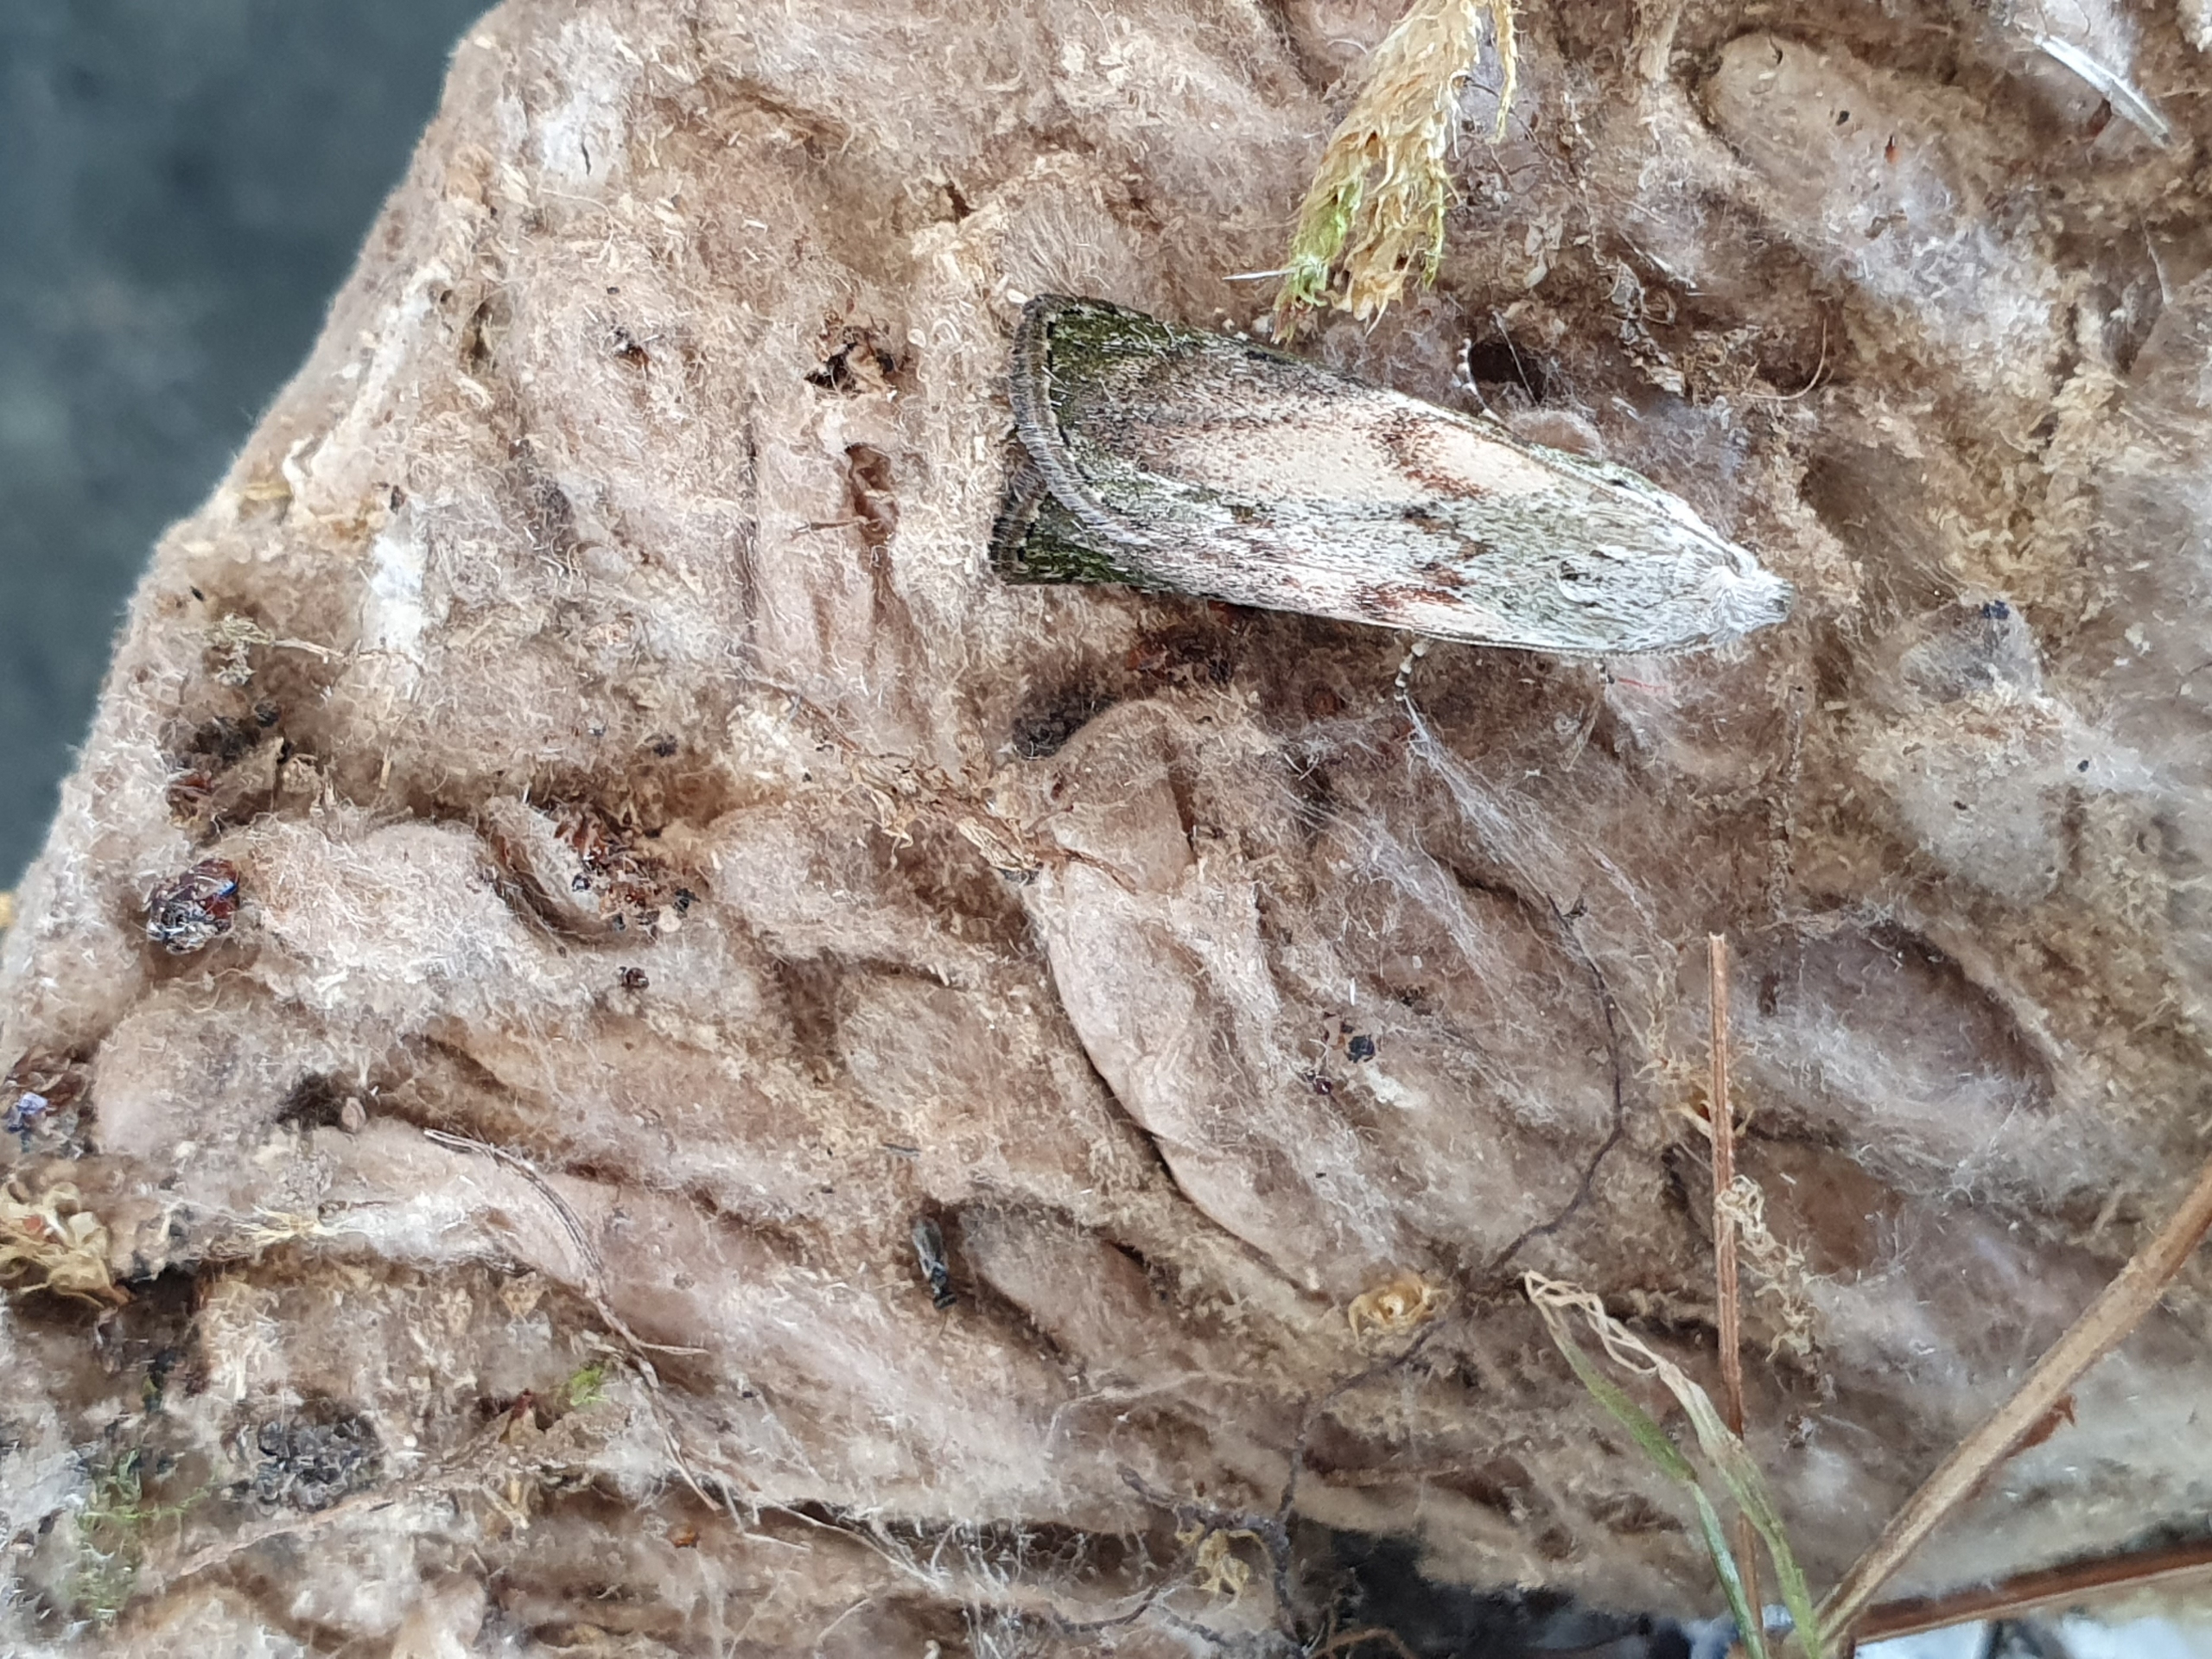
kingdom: Animalia
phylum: Arthropoda
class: Insecta
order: Lepidoptera
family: Pyralidae
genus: Aphomia
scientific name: Aphomia sociella
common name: Humlevoksmøl
